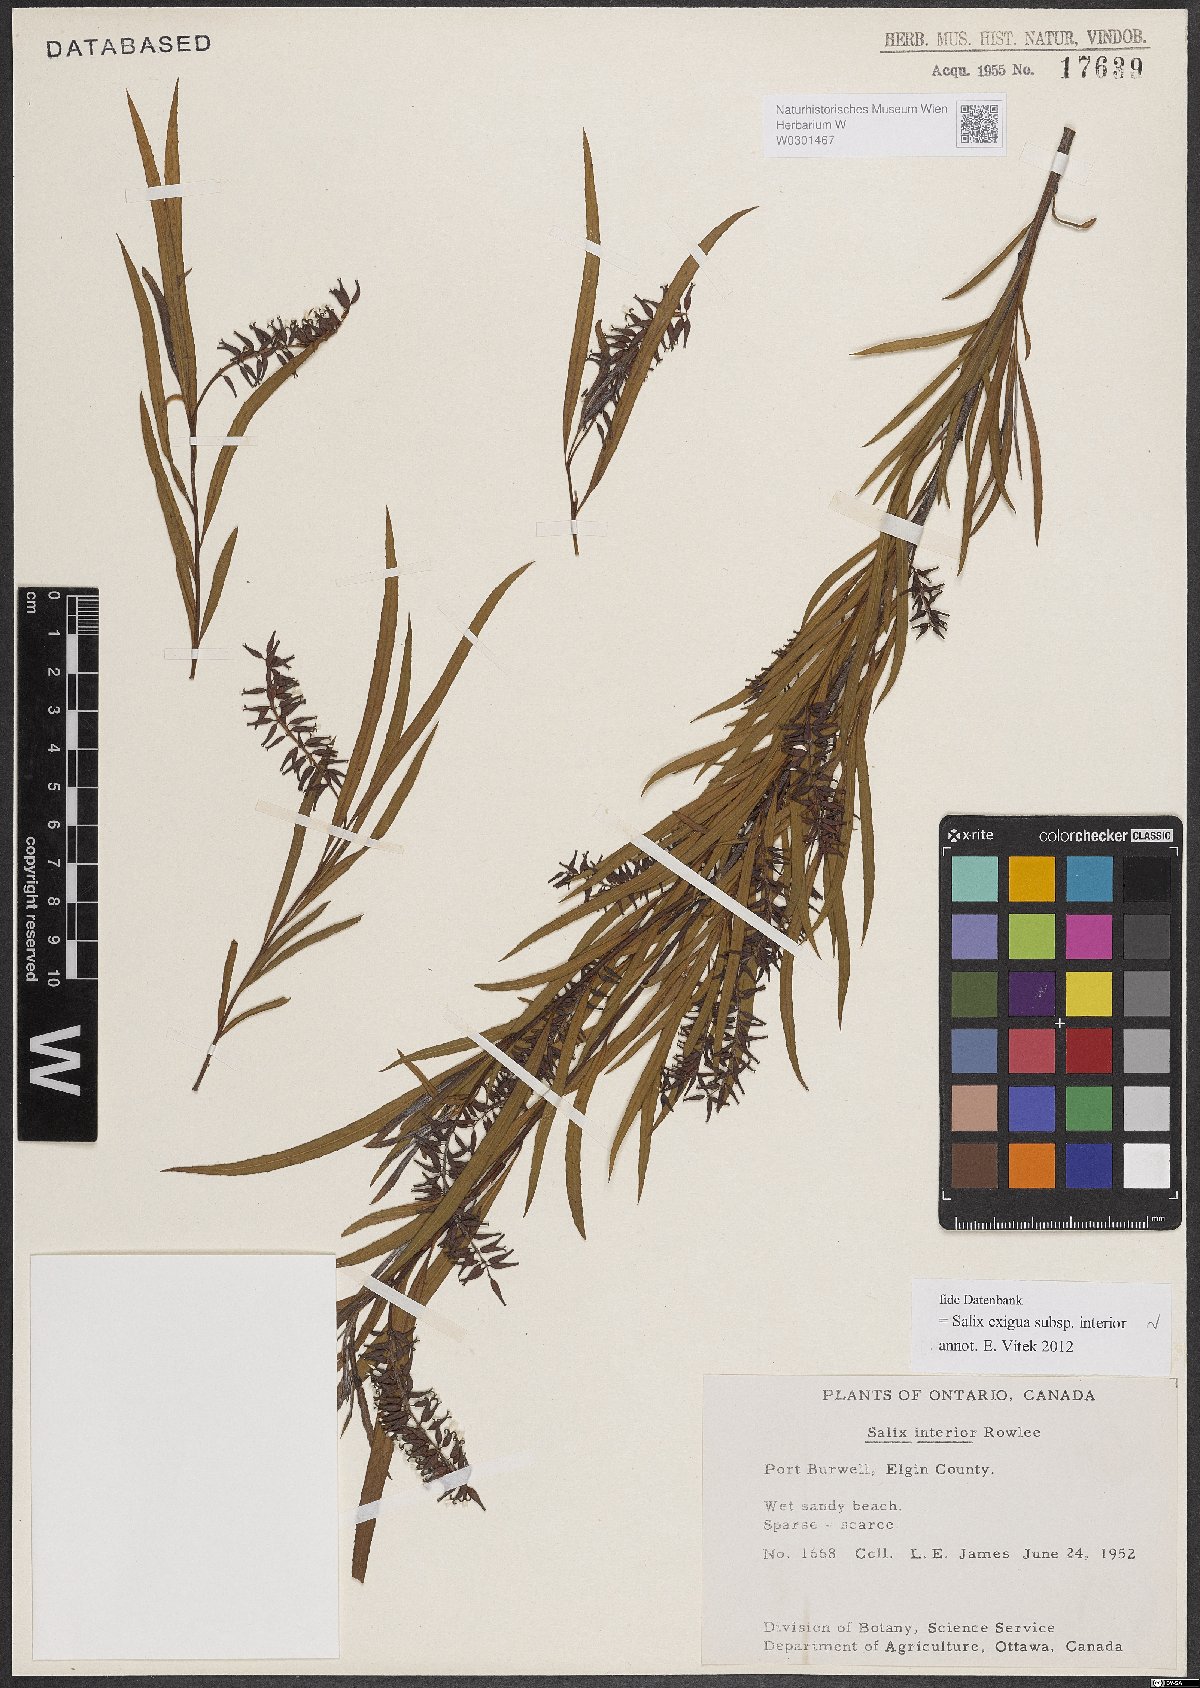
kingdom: Plantae
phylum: Tracheophyta
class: Magnoliopsida
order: Malpighiales
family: Salicaceae
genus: Salix
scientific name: Salix interior
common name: Sandbar willow
